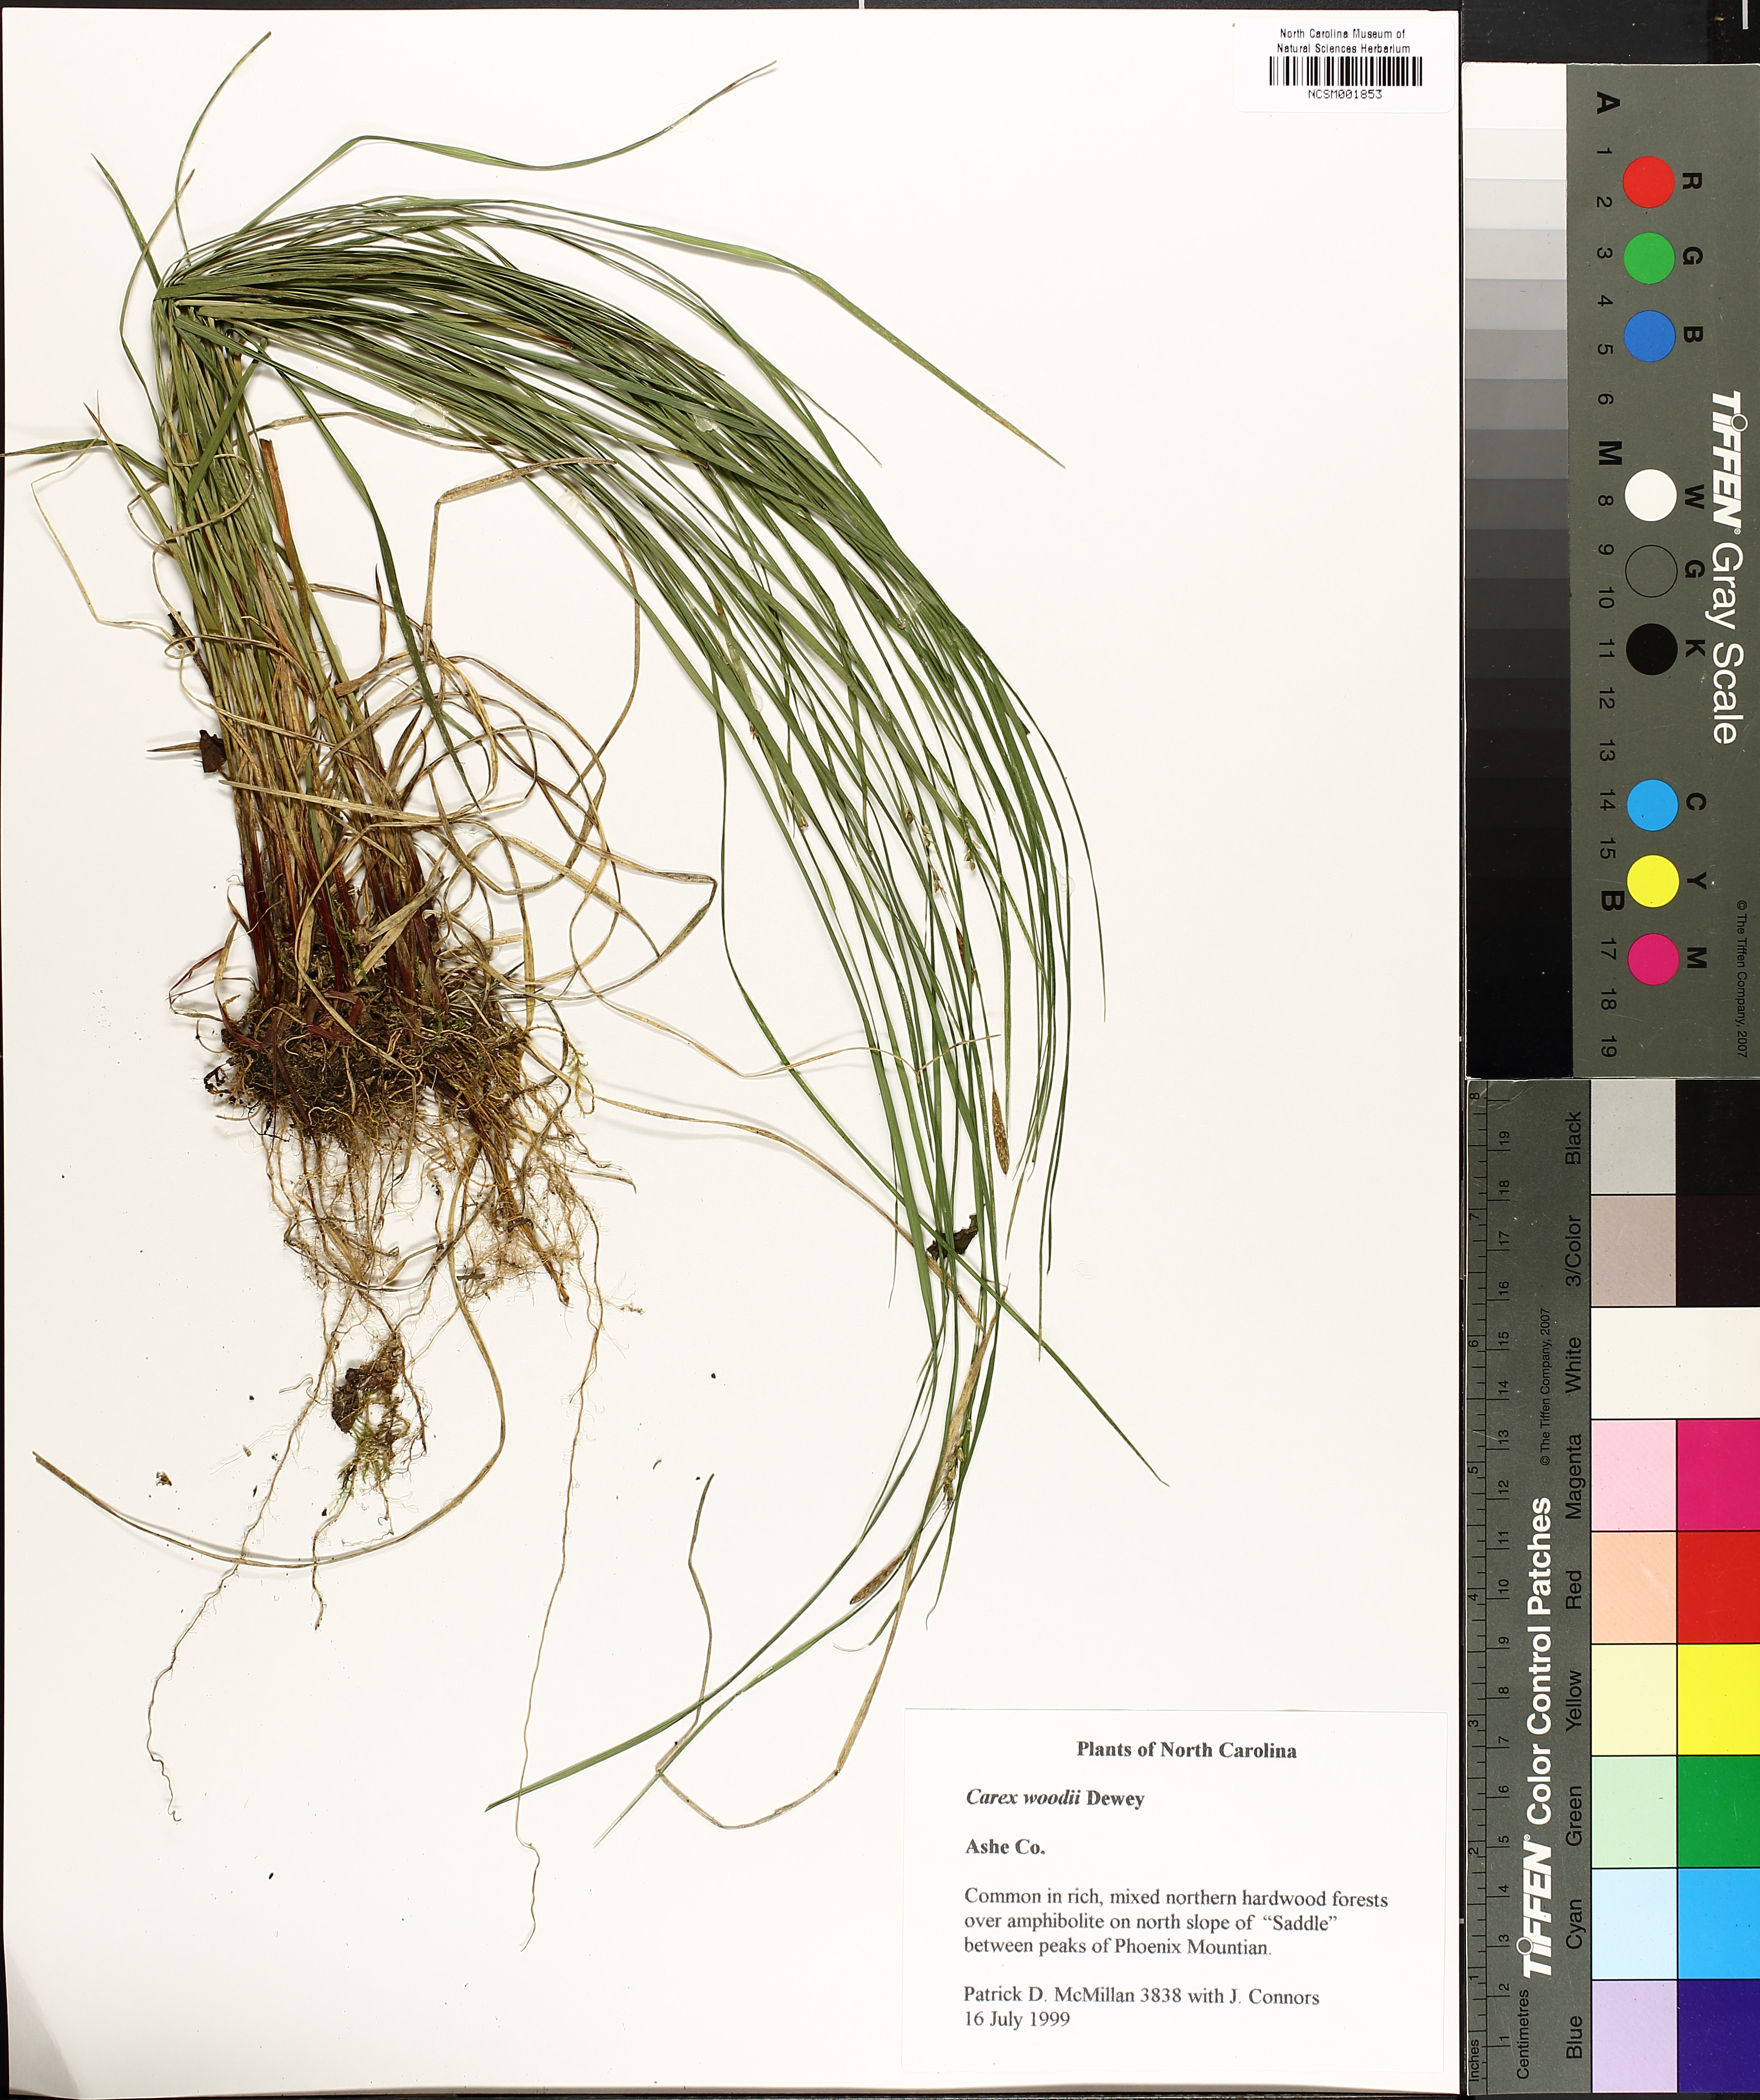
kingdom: Plantae
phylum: Tracheophyta
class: Liliopsida
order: Poales
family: Cyperaceae
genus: Carex
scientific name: Carex woodii
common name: Wood's sedge
